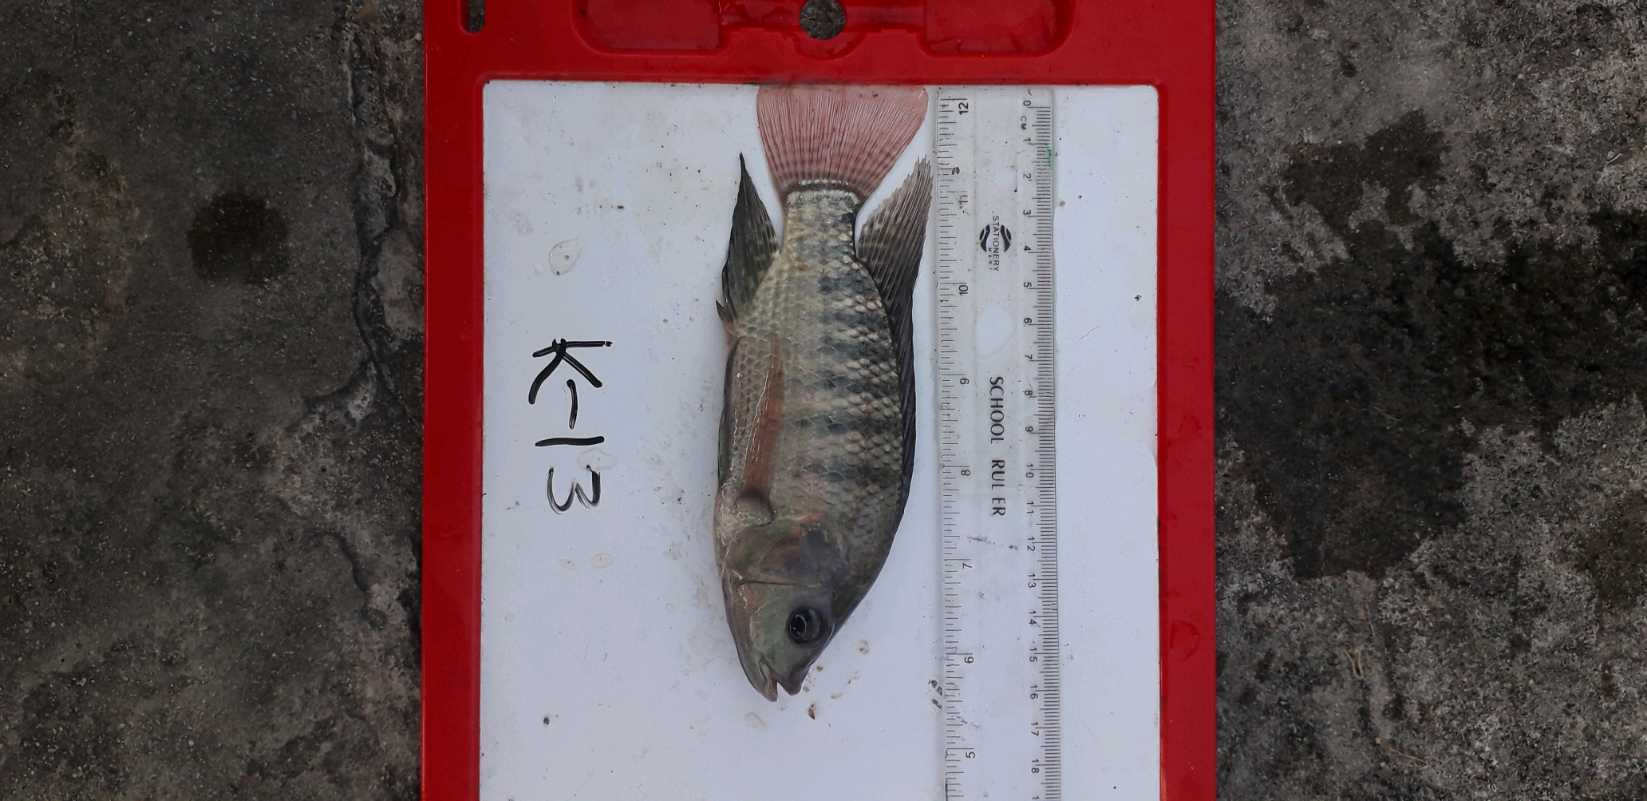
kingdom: Animalia
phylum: Chordata
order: Perciformes
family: Cichlidae
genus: Oreochromis
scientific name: Oreochromis niloticus
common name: Nile tilapia
